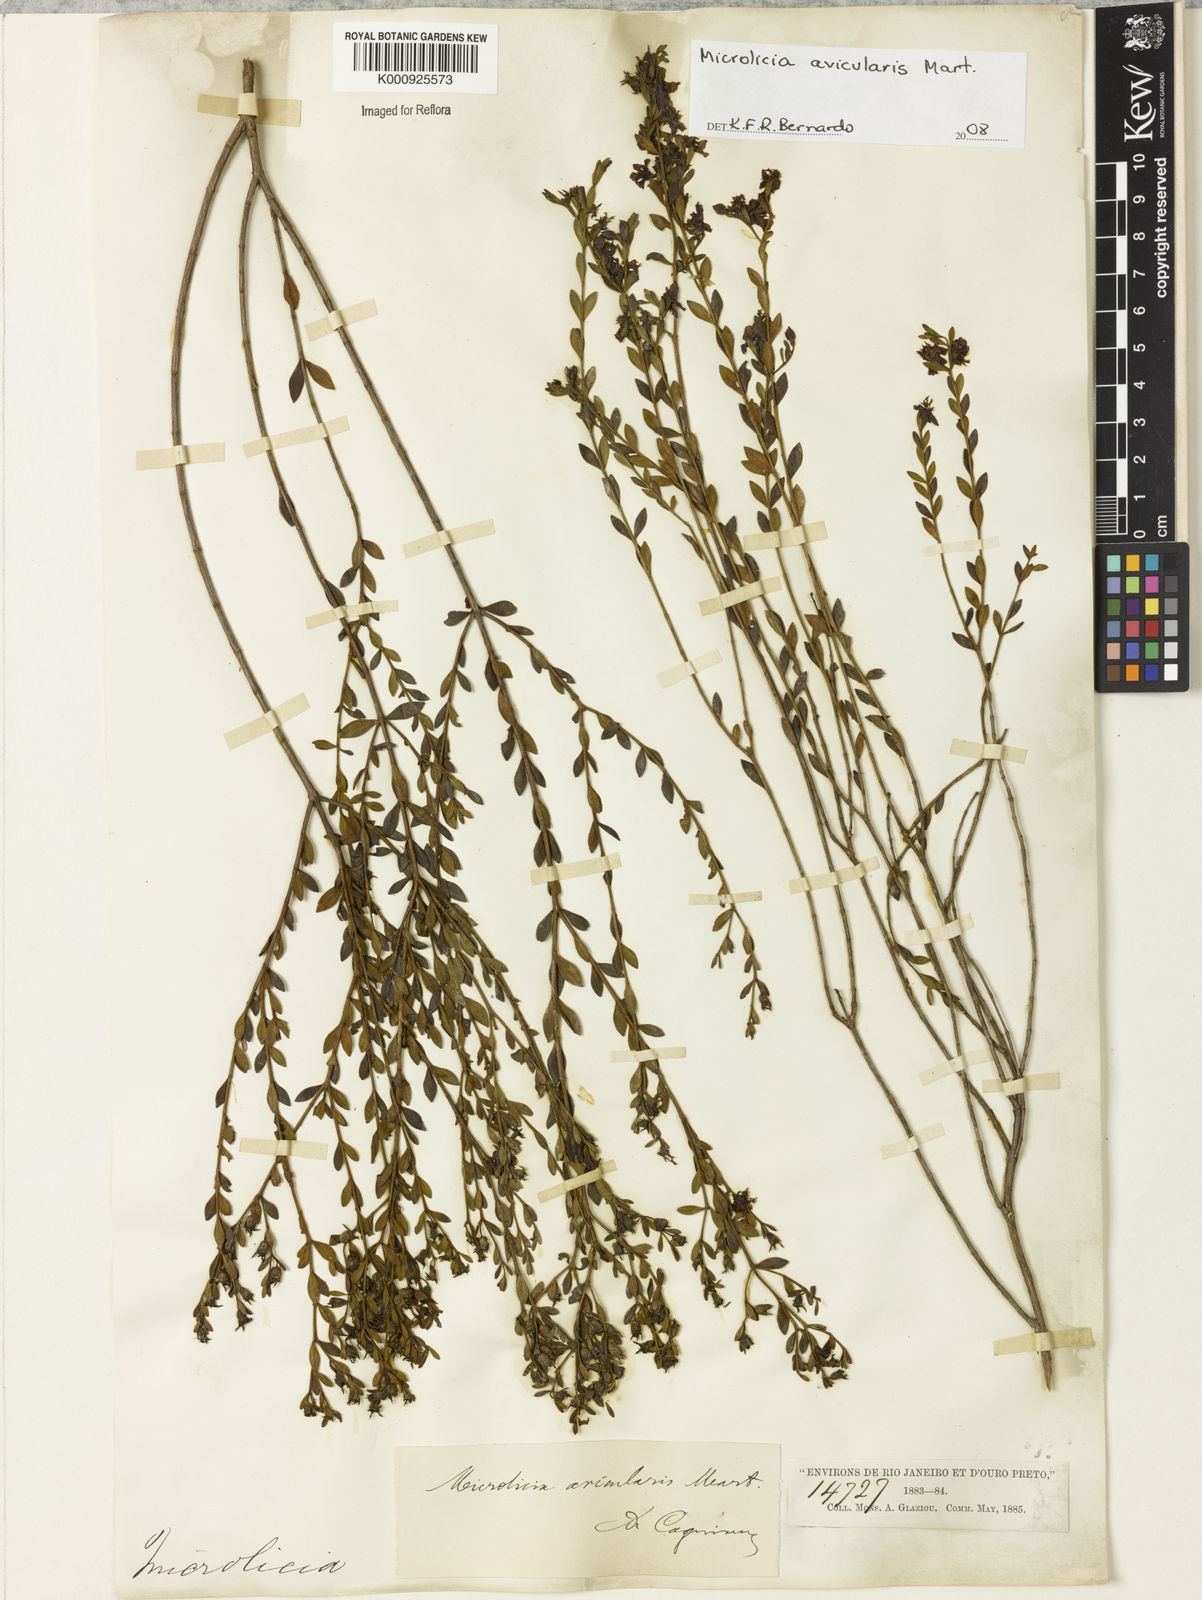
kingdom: Plantae
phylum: Tracheophyta
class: Magnoliopsida
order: Myrtales
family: Melastomataceae
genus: Microlicia
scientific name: Microlicia avicularis
